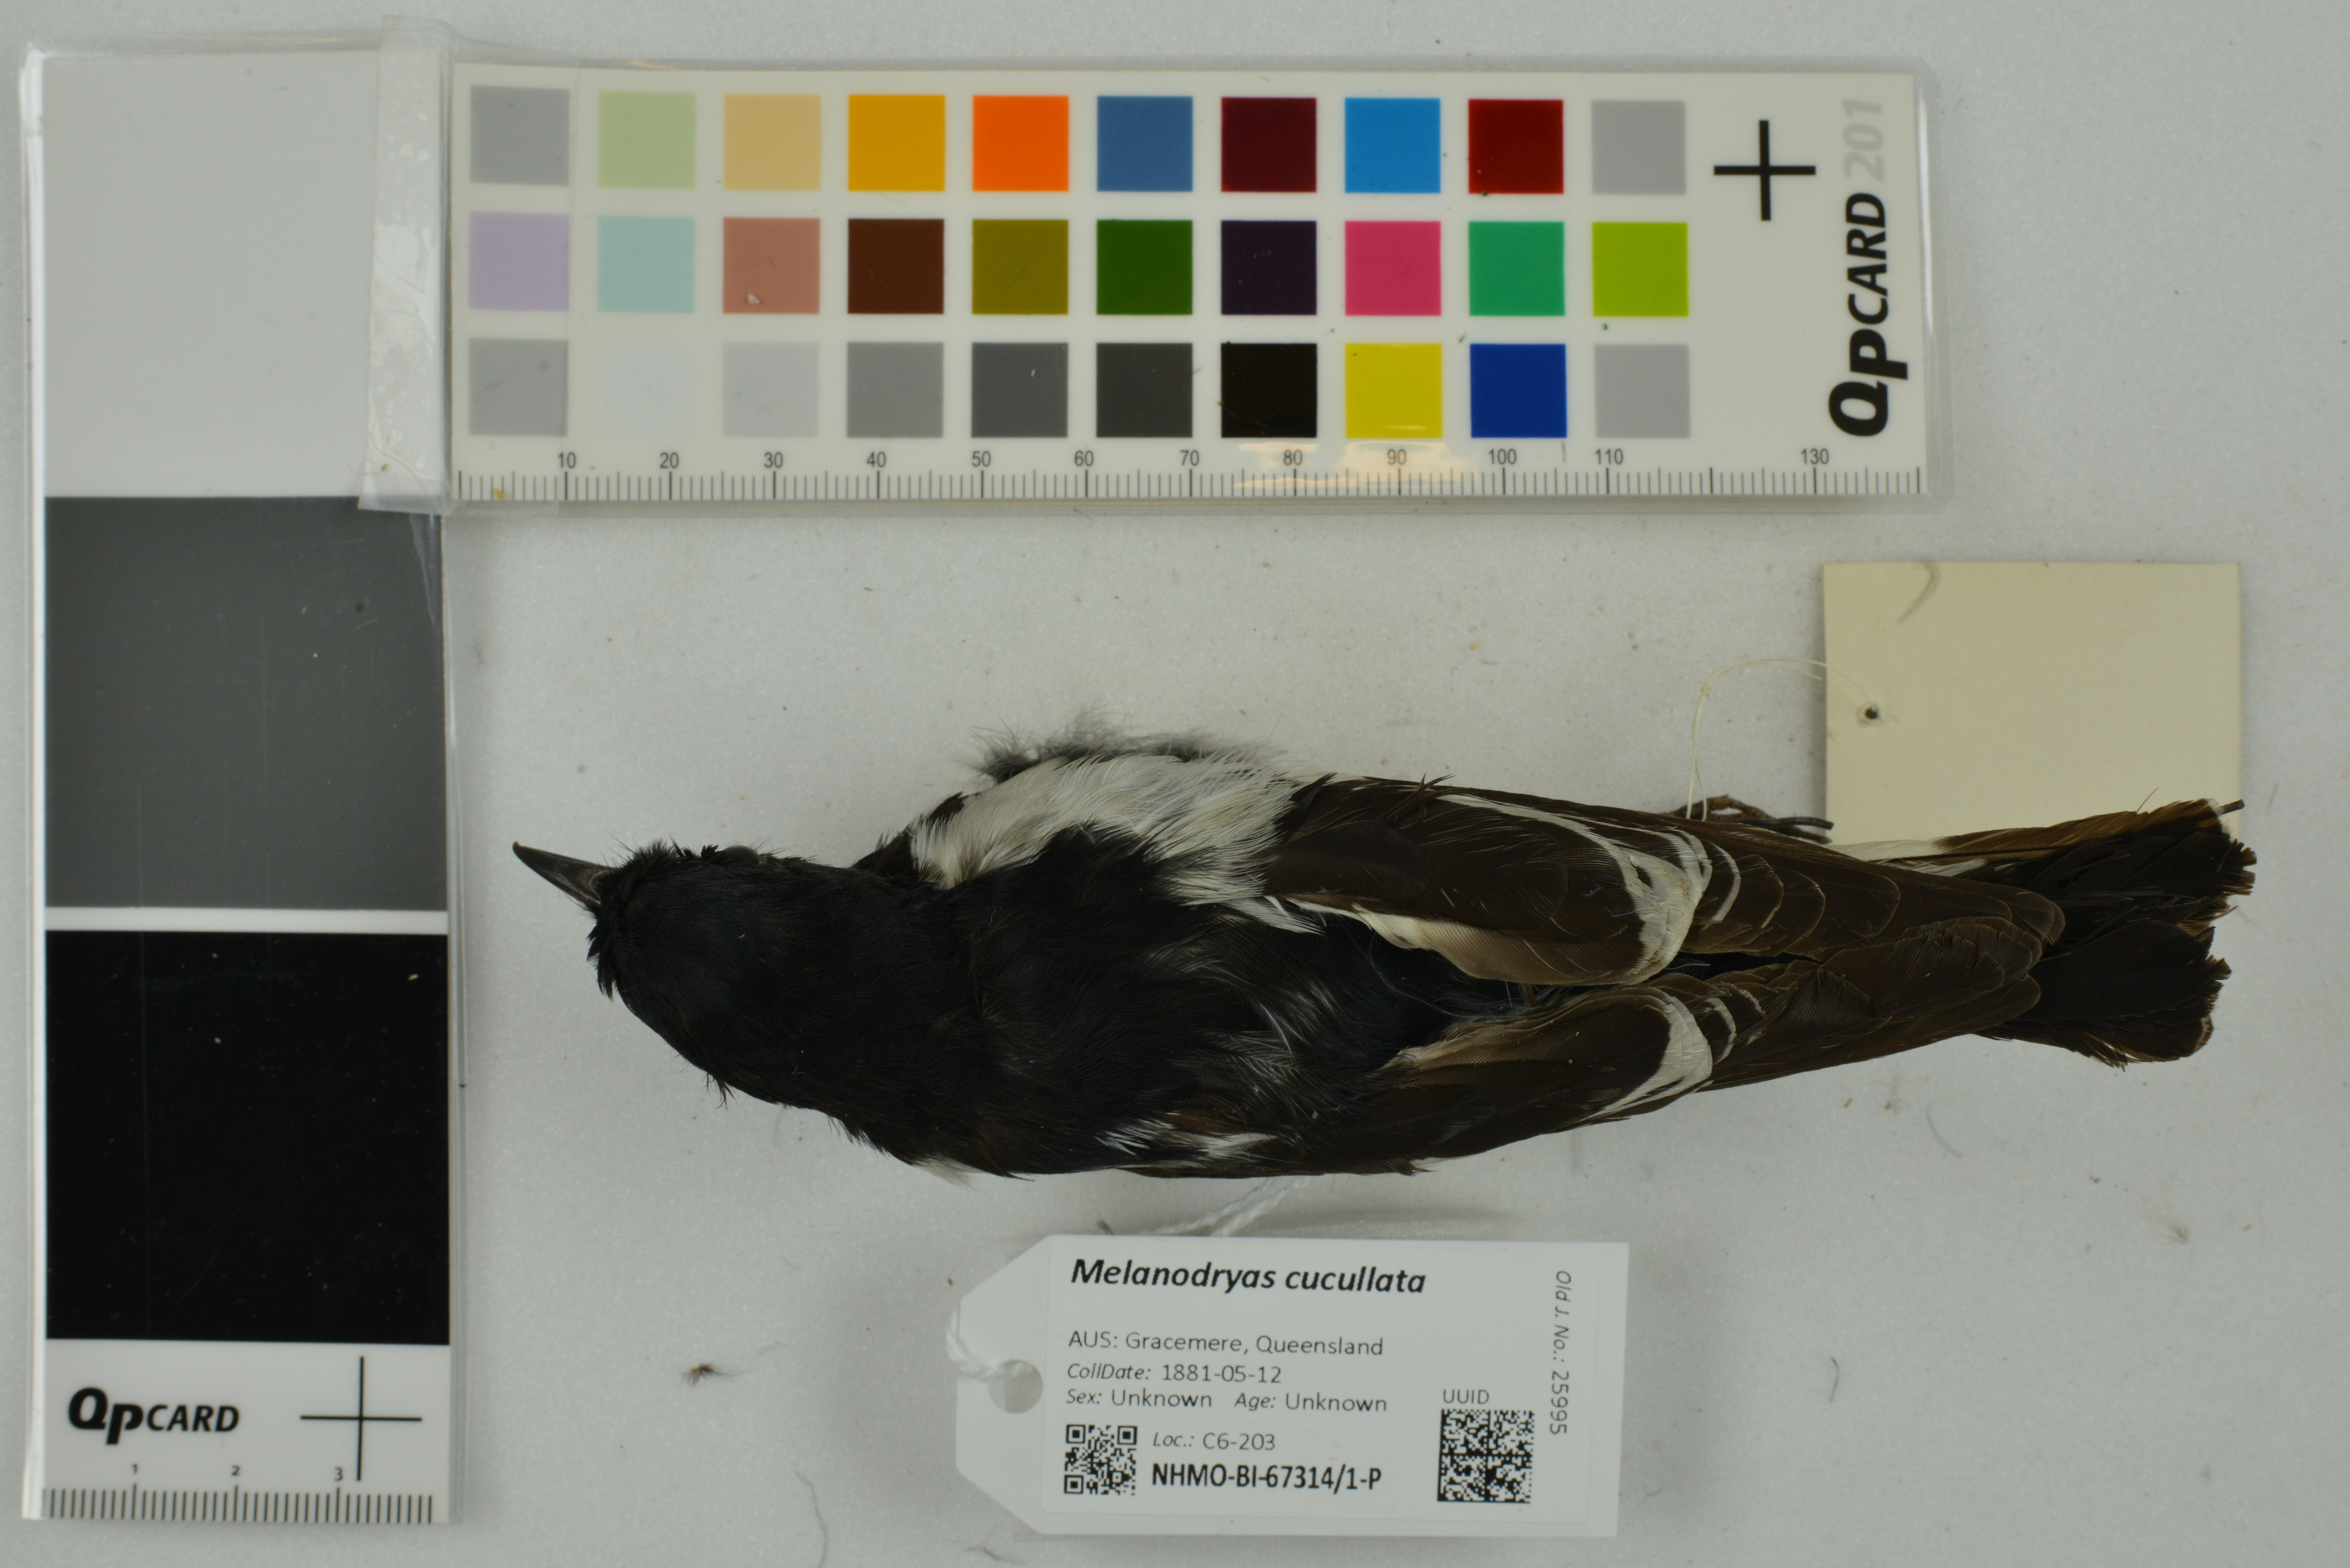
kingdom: Animalia
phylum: Chordata
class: Aves
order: Passeriformes
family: Petroicidae
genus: Melanodryas
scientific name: Melanodryas cucullata
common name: Hooded robin
